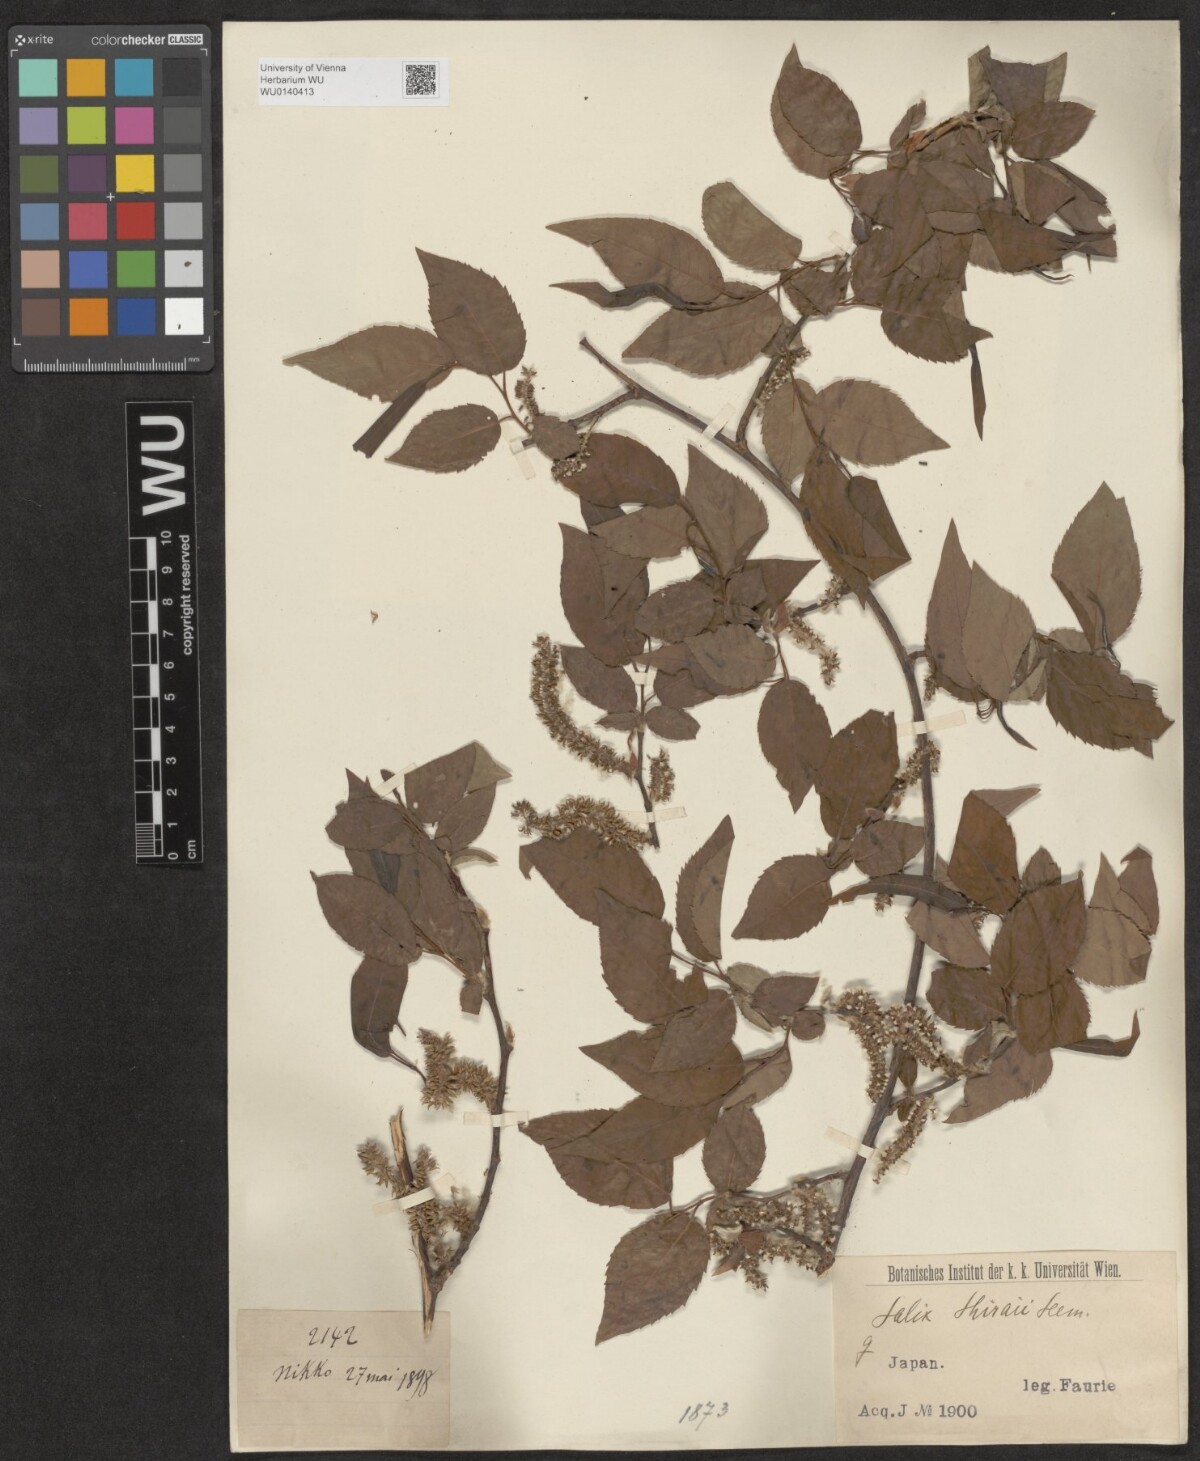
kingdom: Plantae
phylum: Tracheophyta
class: Magnoliopsida
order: Malpighiales
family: Salicaceae
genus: Salix
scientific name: Salix shiraii
